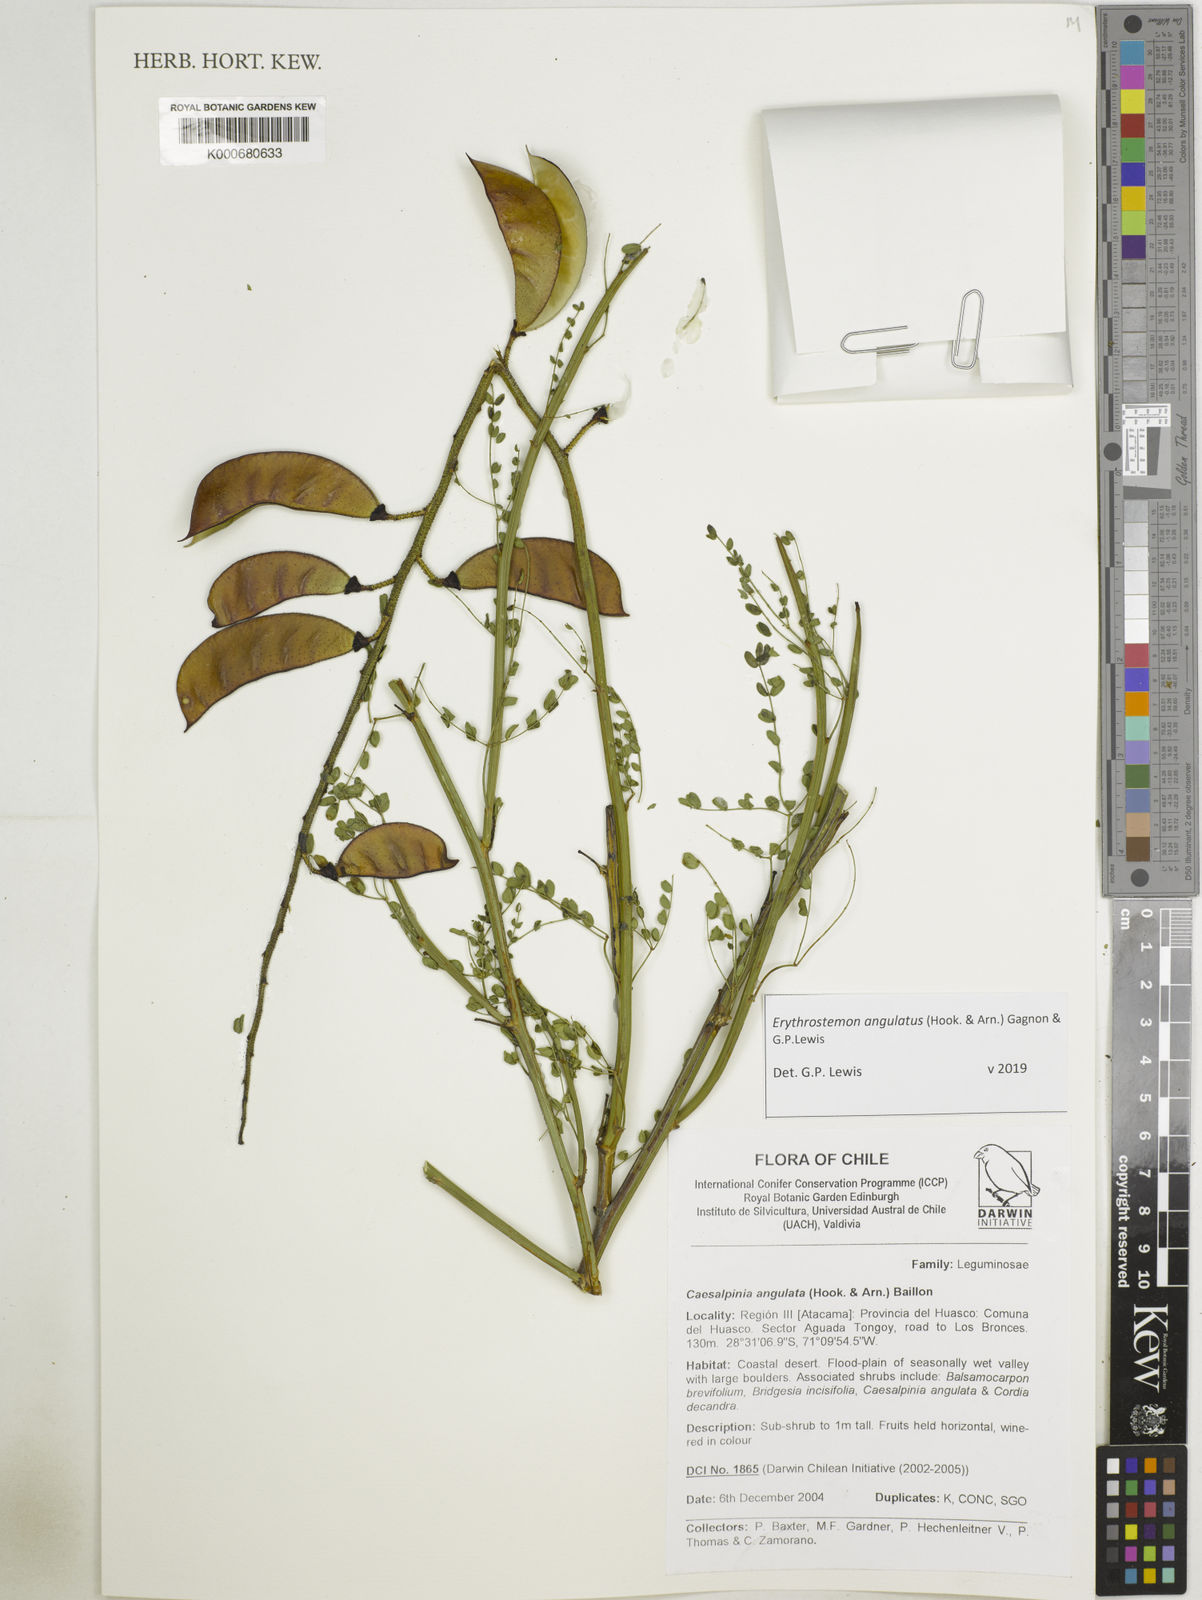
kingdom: Plantae
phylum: Tracheophyta
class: Magnoliopsida
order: Fabales
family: Fabaceae
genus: Caesalpinia
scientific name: Caesalpinia
